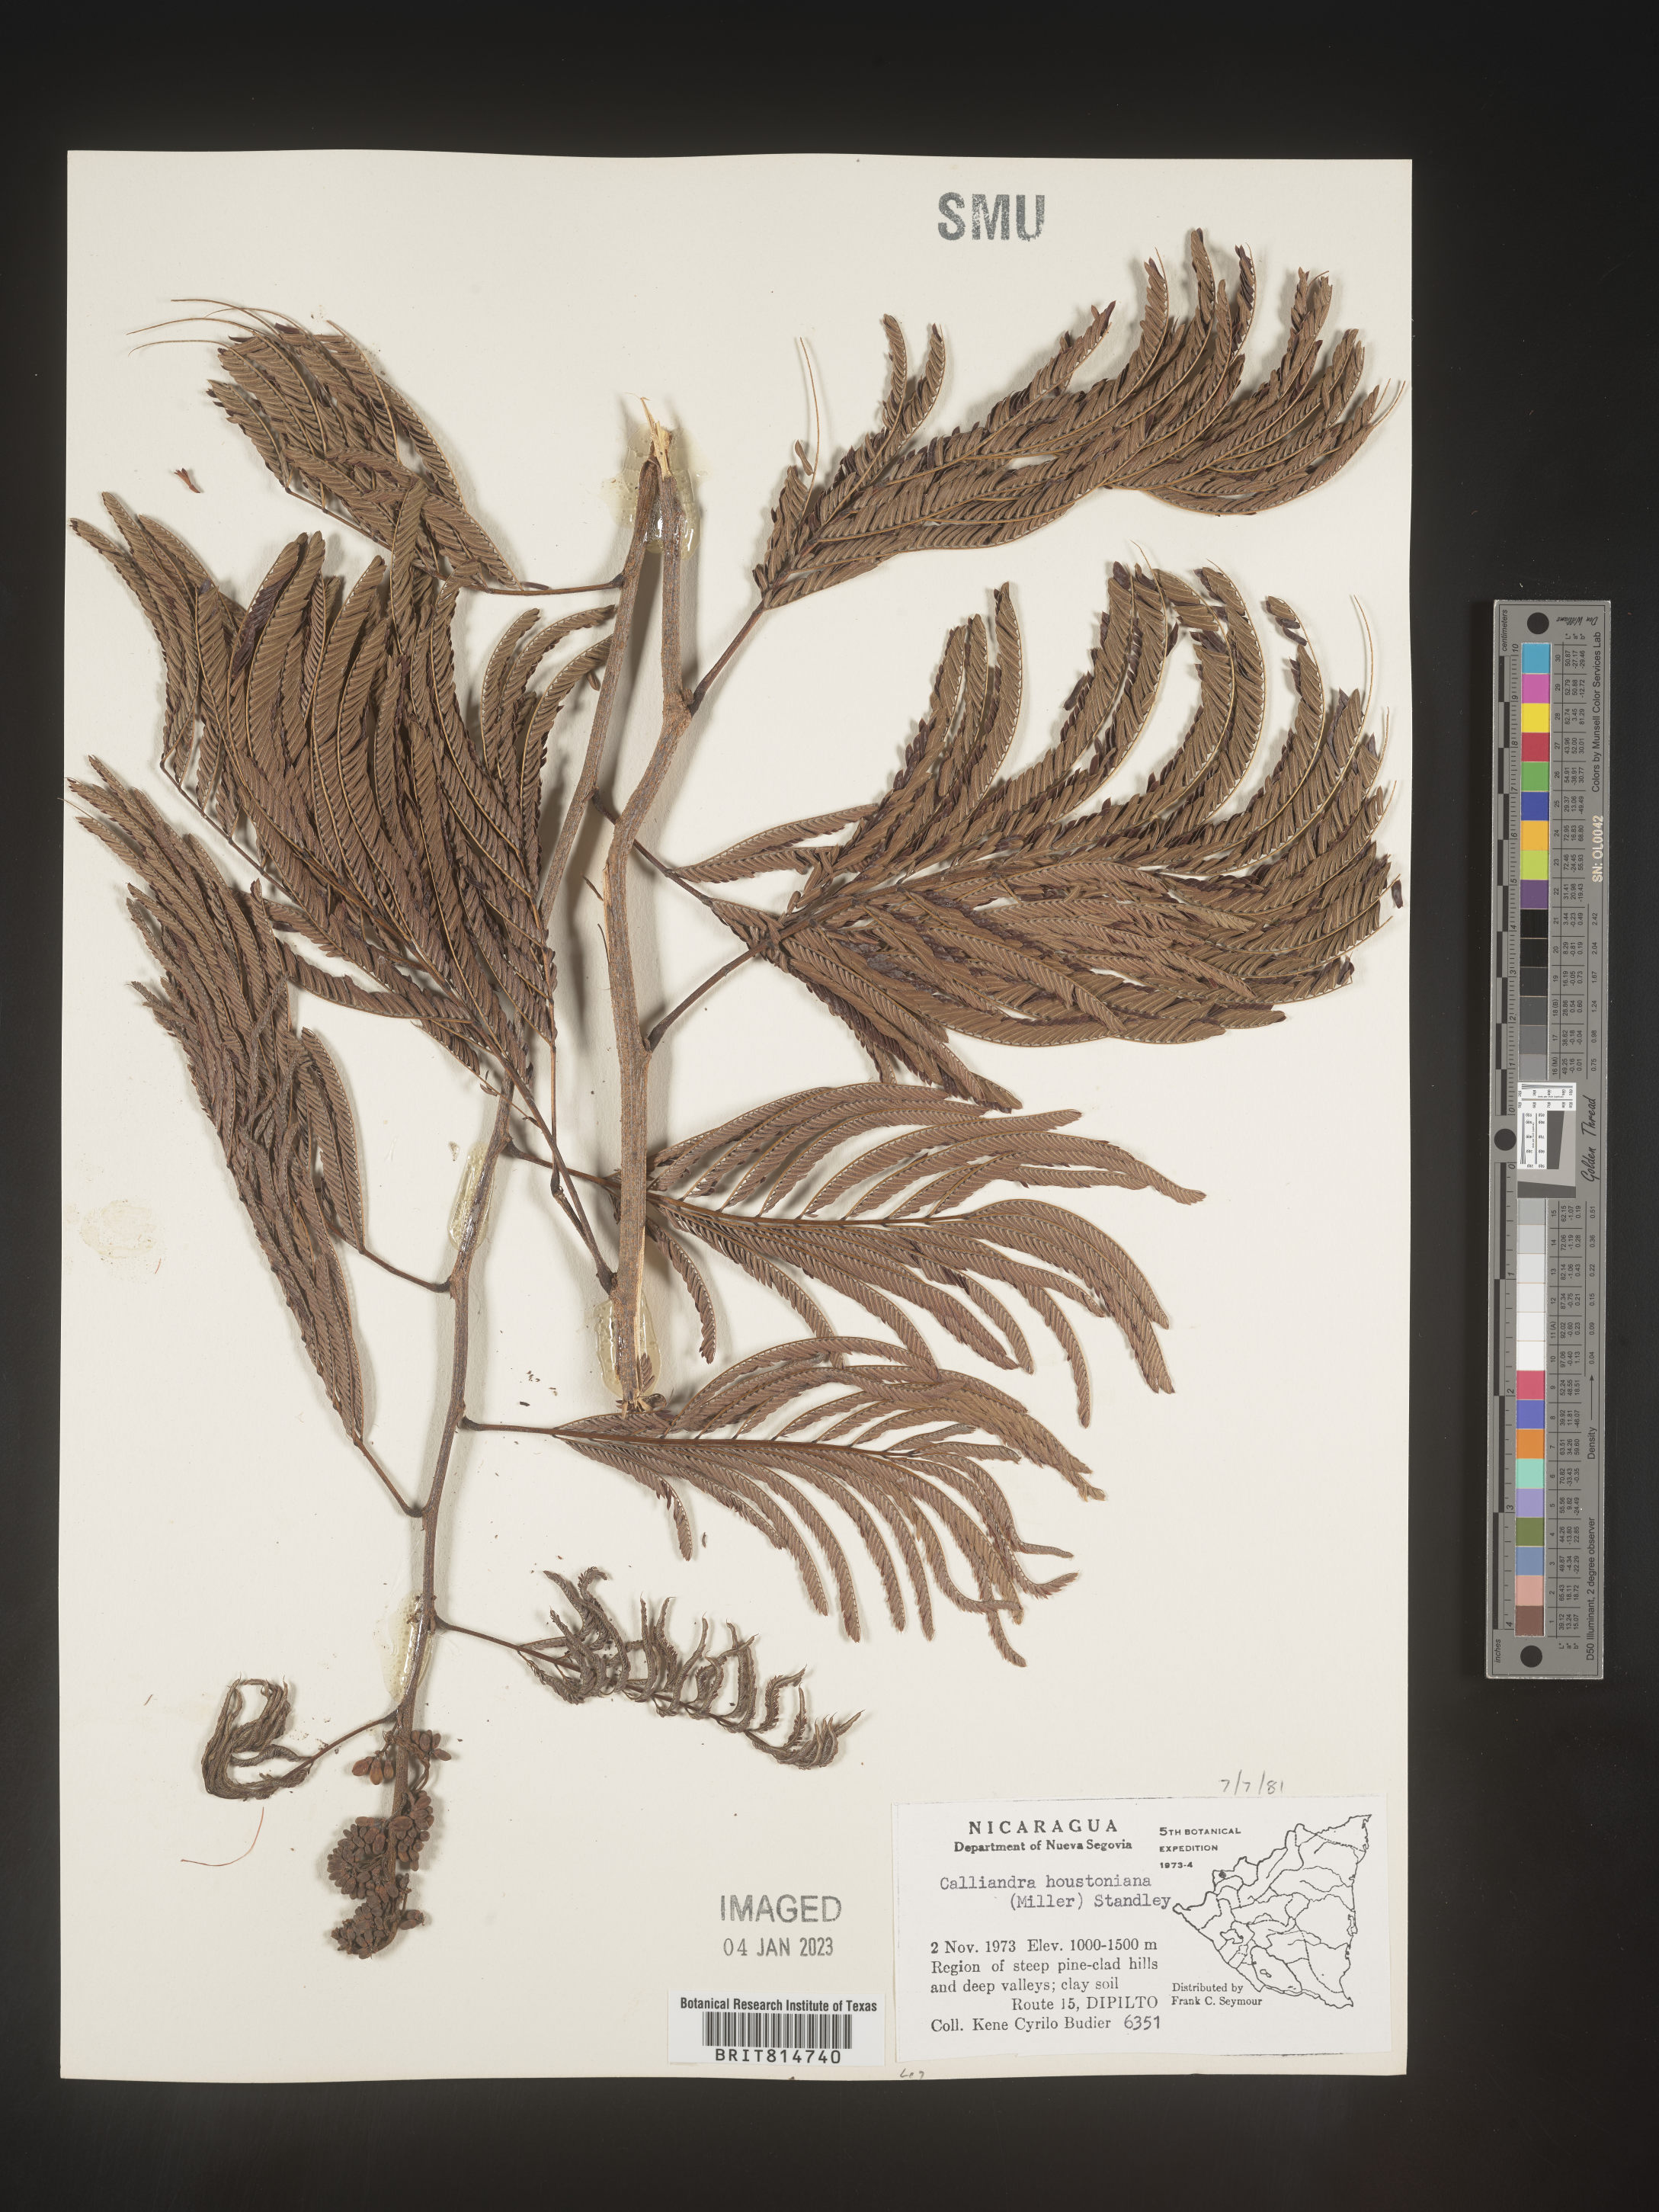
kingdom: Plantae
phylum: Tracheophyta
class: Magnoliopsida
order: Fabales
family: Fabaceae
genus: Calliandra
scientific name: Calliandra
